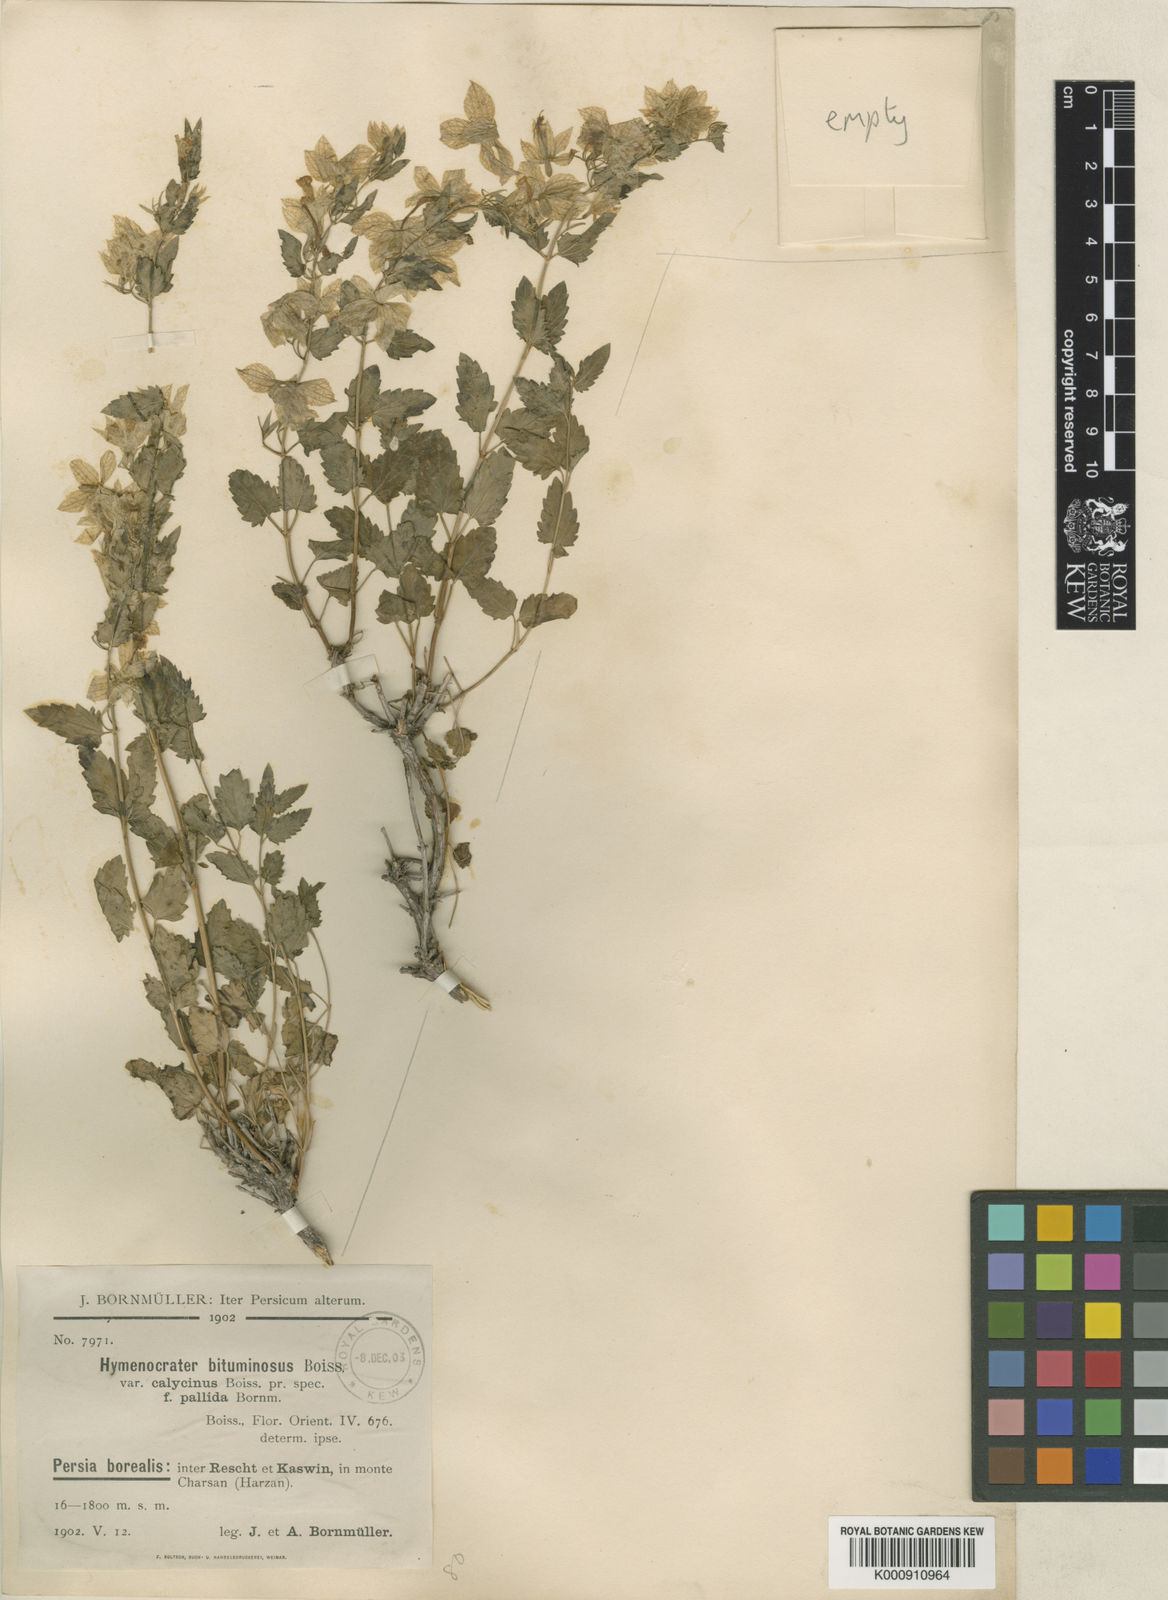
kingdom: Plantae
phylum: Tracheophyta
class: Magnoliopsida
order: Lamiales
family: Lamiaceae
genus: Hymenocrater
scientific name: Hymenocrater calycinus
